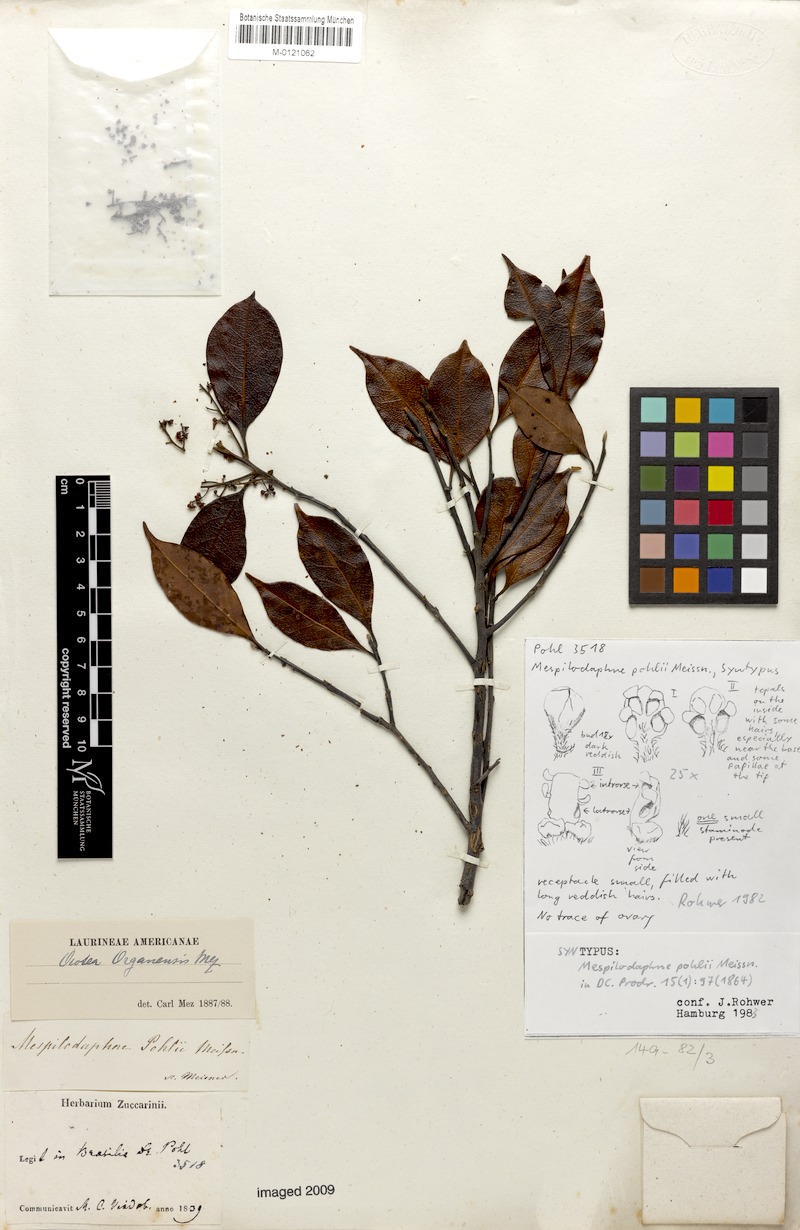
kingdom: Plantae
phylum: Tracheophyta
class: Magnoliopsida
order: Laurales
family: Lauraceae
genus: Mespilodaphne
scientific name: Mespilodaphne corymbosa
